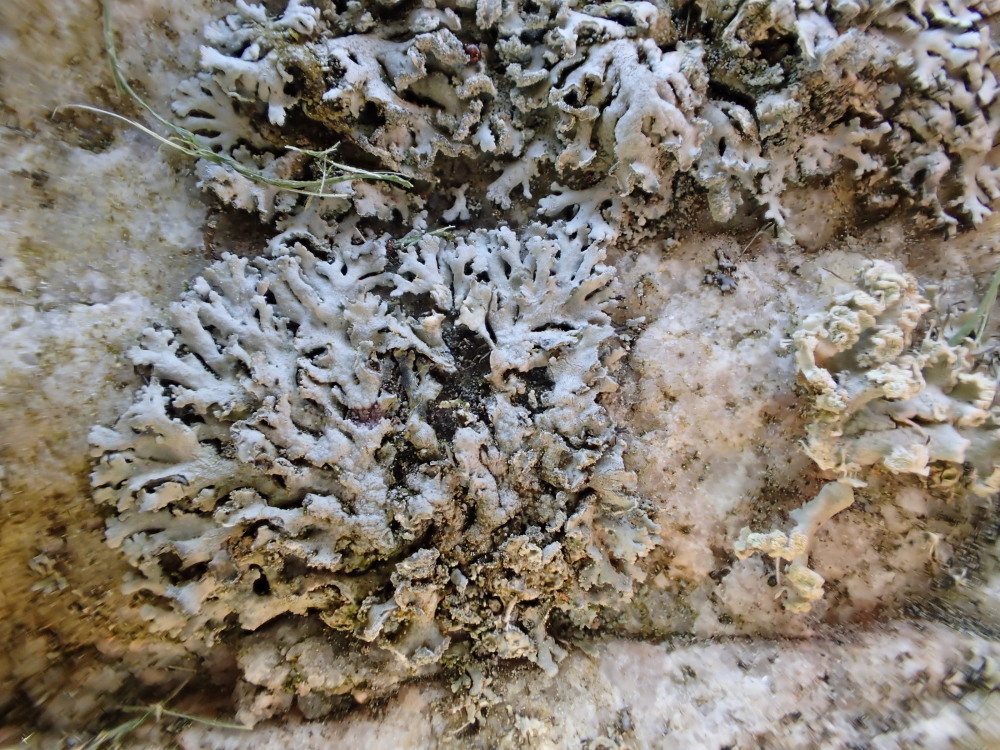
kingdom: Fungi
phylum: Ascomycota
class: Lecanoromycetes
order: Caliciales
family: Physciaceae
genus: Physcia
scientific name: Physcia dubia
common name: fuglestens-rosetlav
